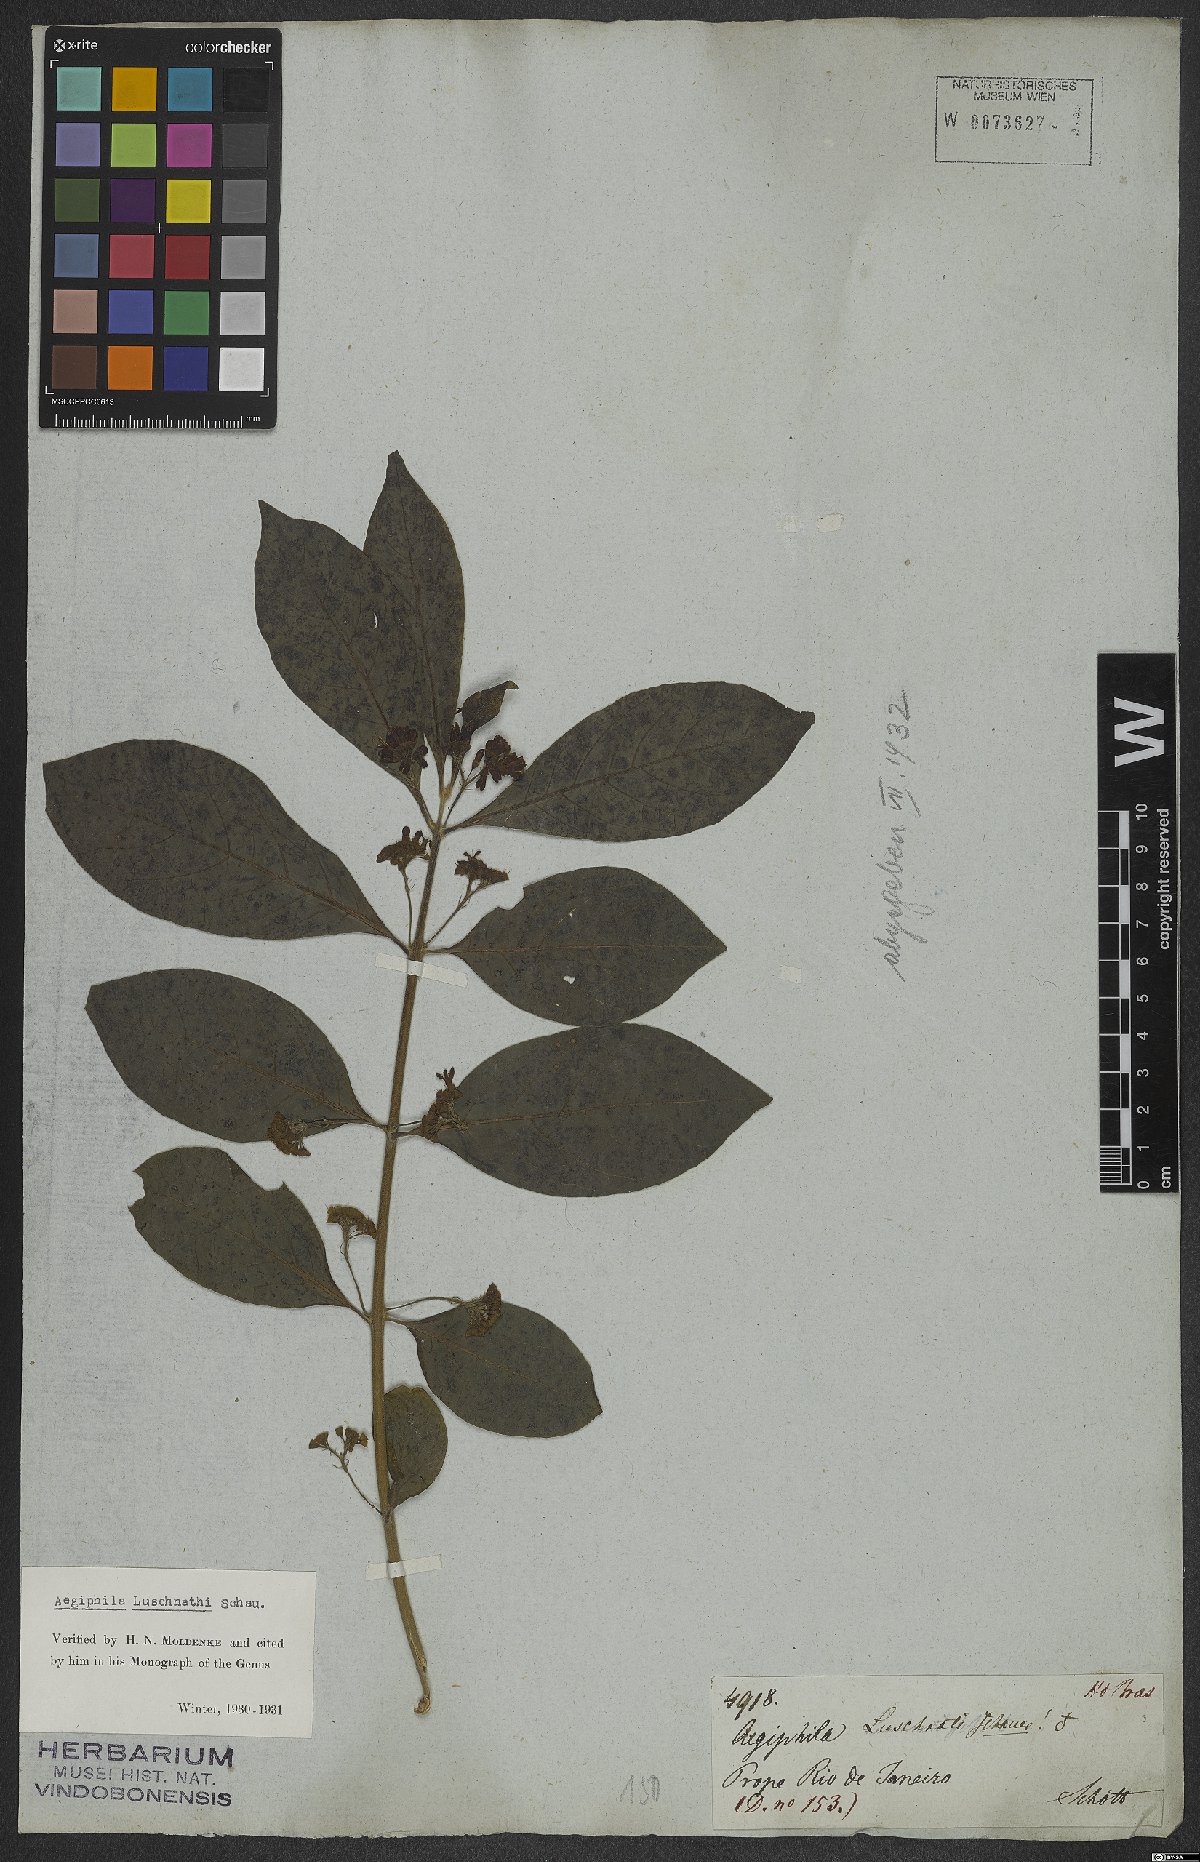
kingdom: Plantae
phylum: Tracheophyta
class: Magnoliopsida
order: Lamiales
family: Lamiaceae
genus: Aegiphila
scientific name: Aegiphila luschnathii
